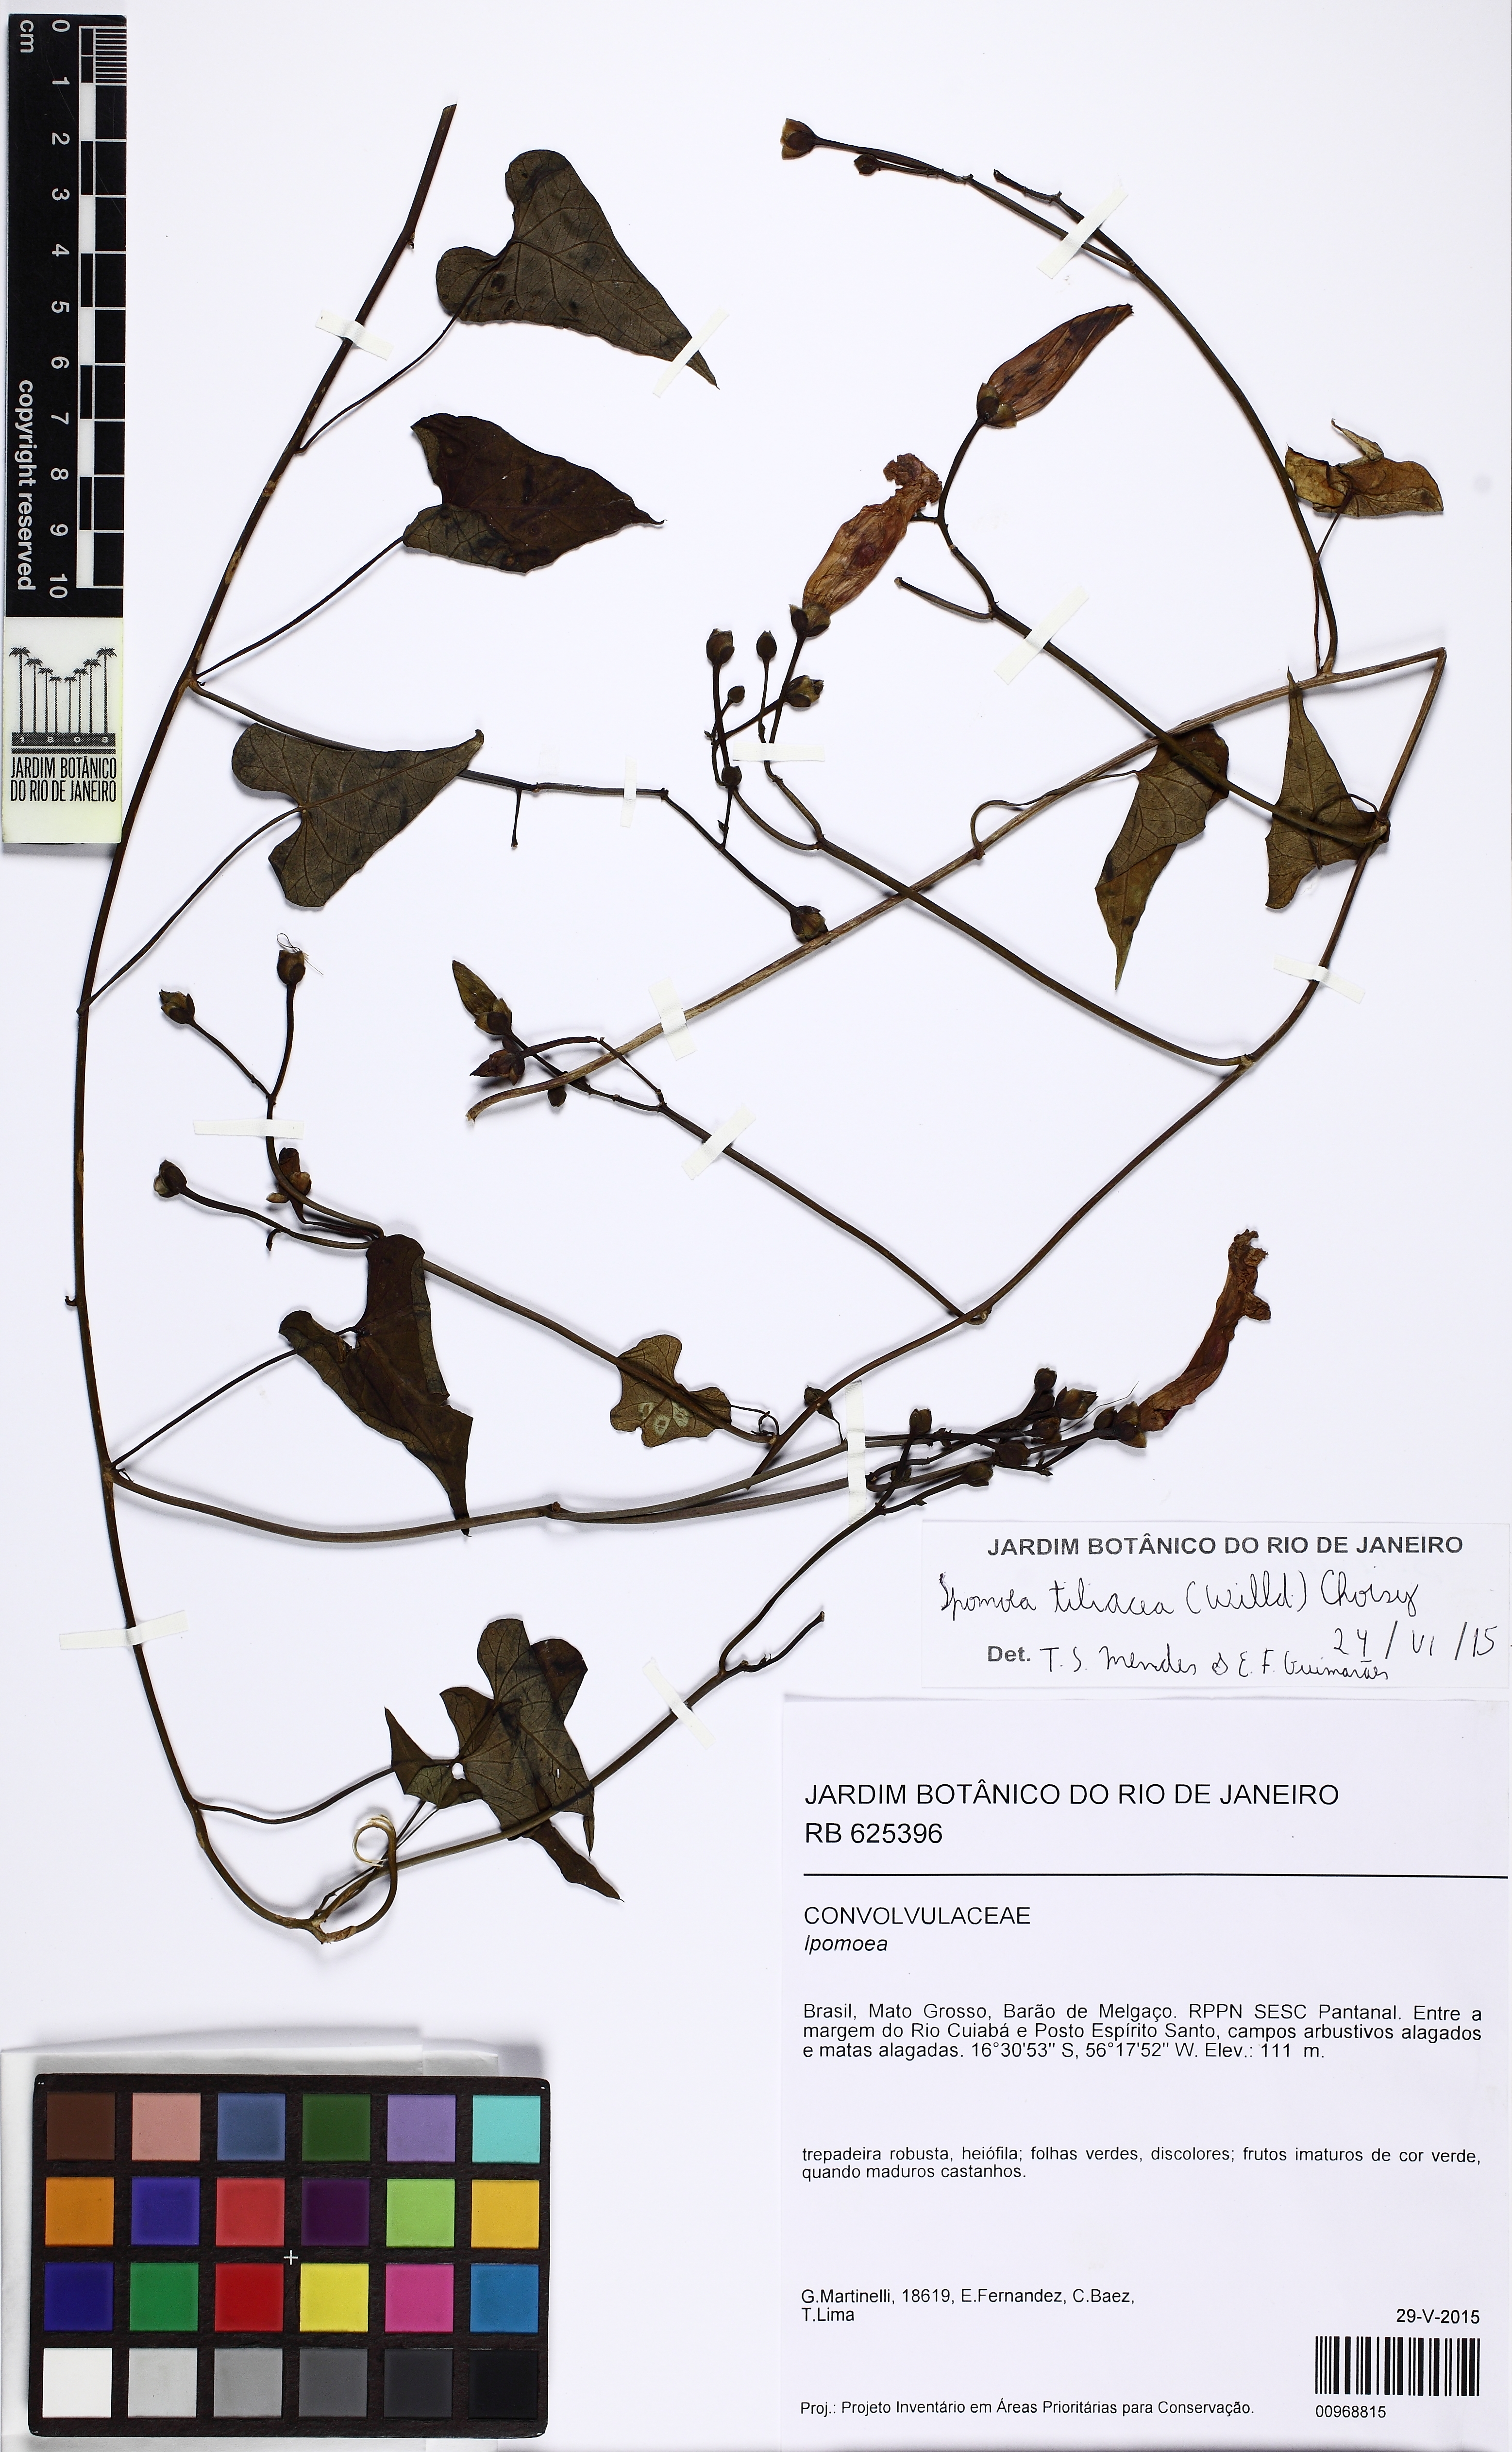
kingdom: Plantae
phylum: Tracheophyta
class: Magnoliopsida
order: Solanales
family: Convolvulaceae
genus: Ipomoea
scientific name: Ipomoea tiliacea
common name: Wild potato vine
